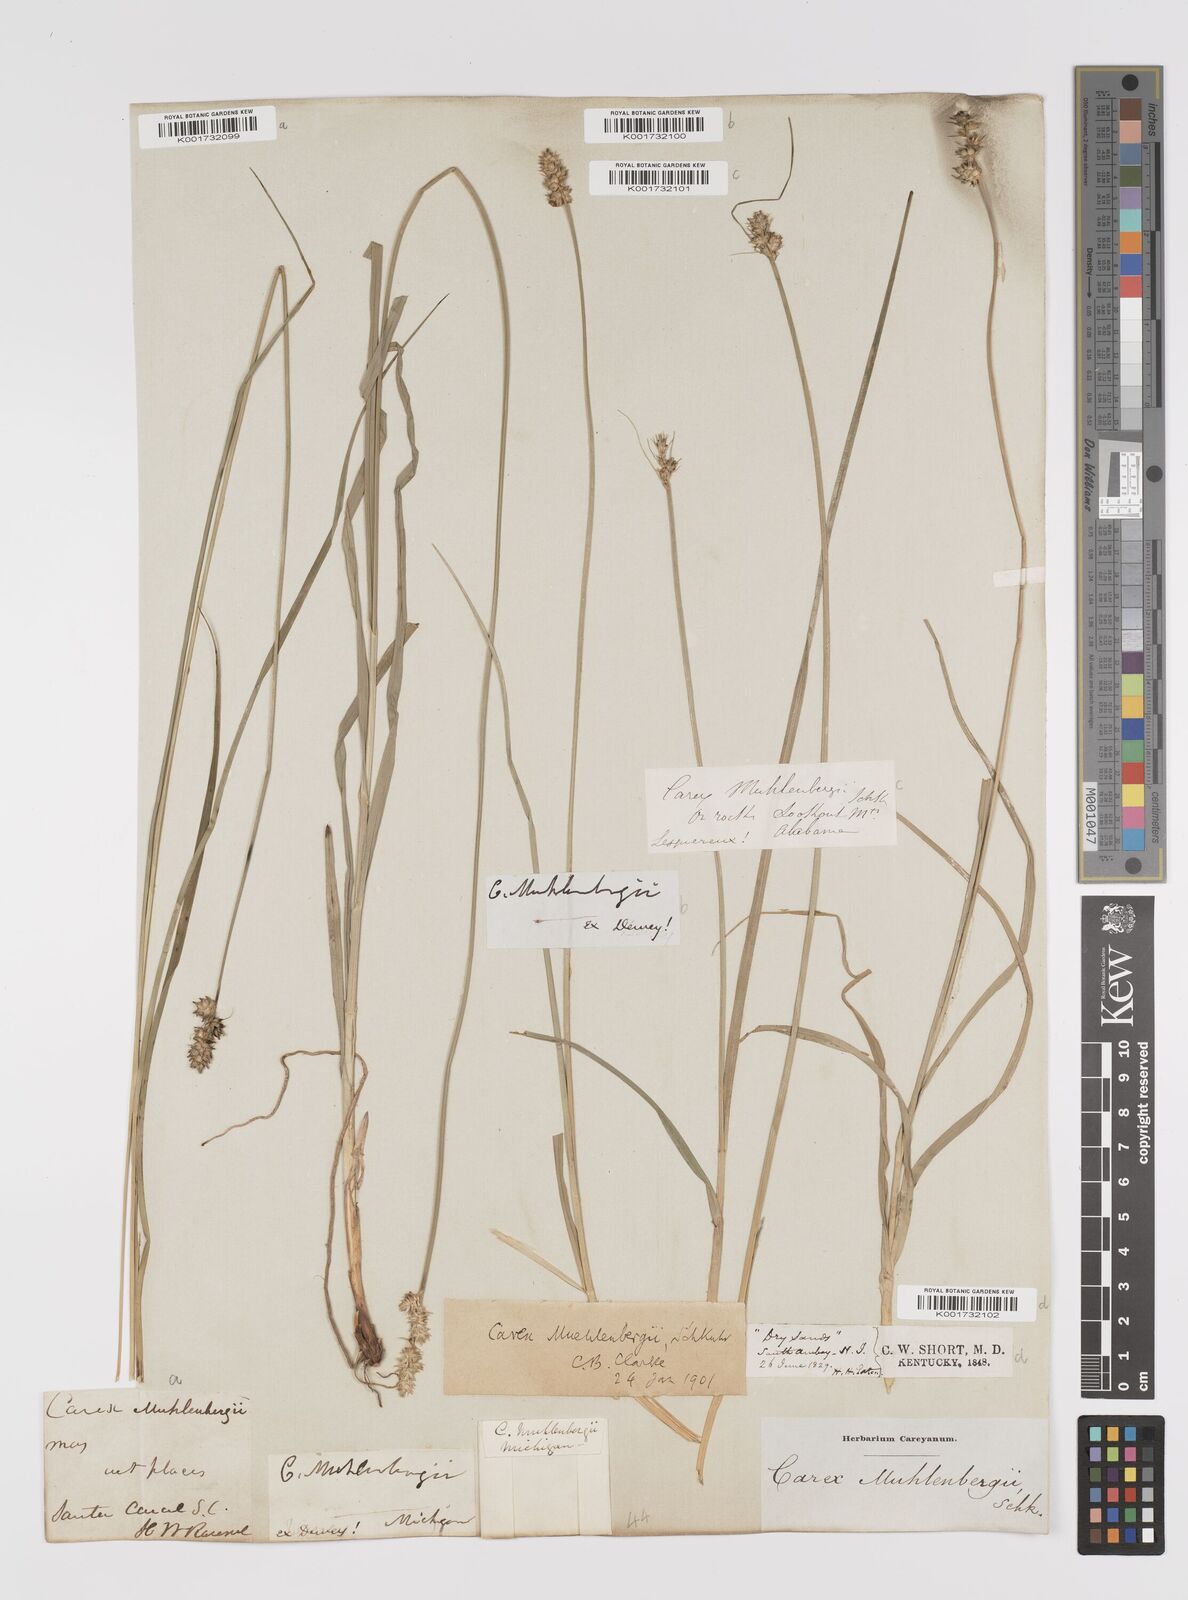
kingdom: Plantae
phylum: Tracheophyta
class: Liliopsida
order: Poales
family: Cyperaceae
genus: Carex
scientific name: Carex vulpinoidea
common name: American fox-sedge
